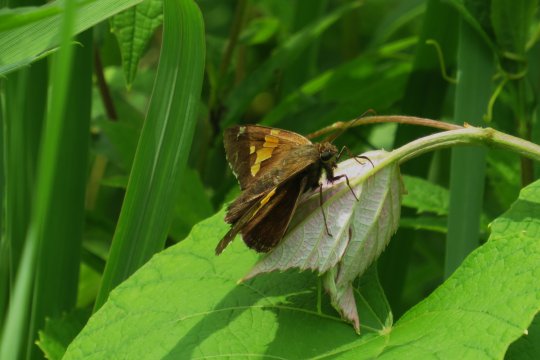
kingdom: Animalia
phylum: Arthropoda
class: Insecta
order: Lepidoptera
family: Hesperiidae
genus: Epargyreus
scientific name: Epargyreus clarus
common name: Silver-spotted Skipper
